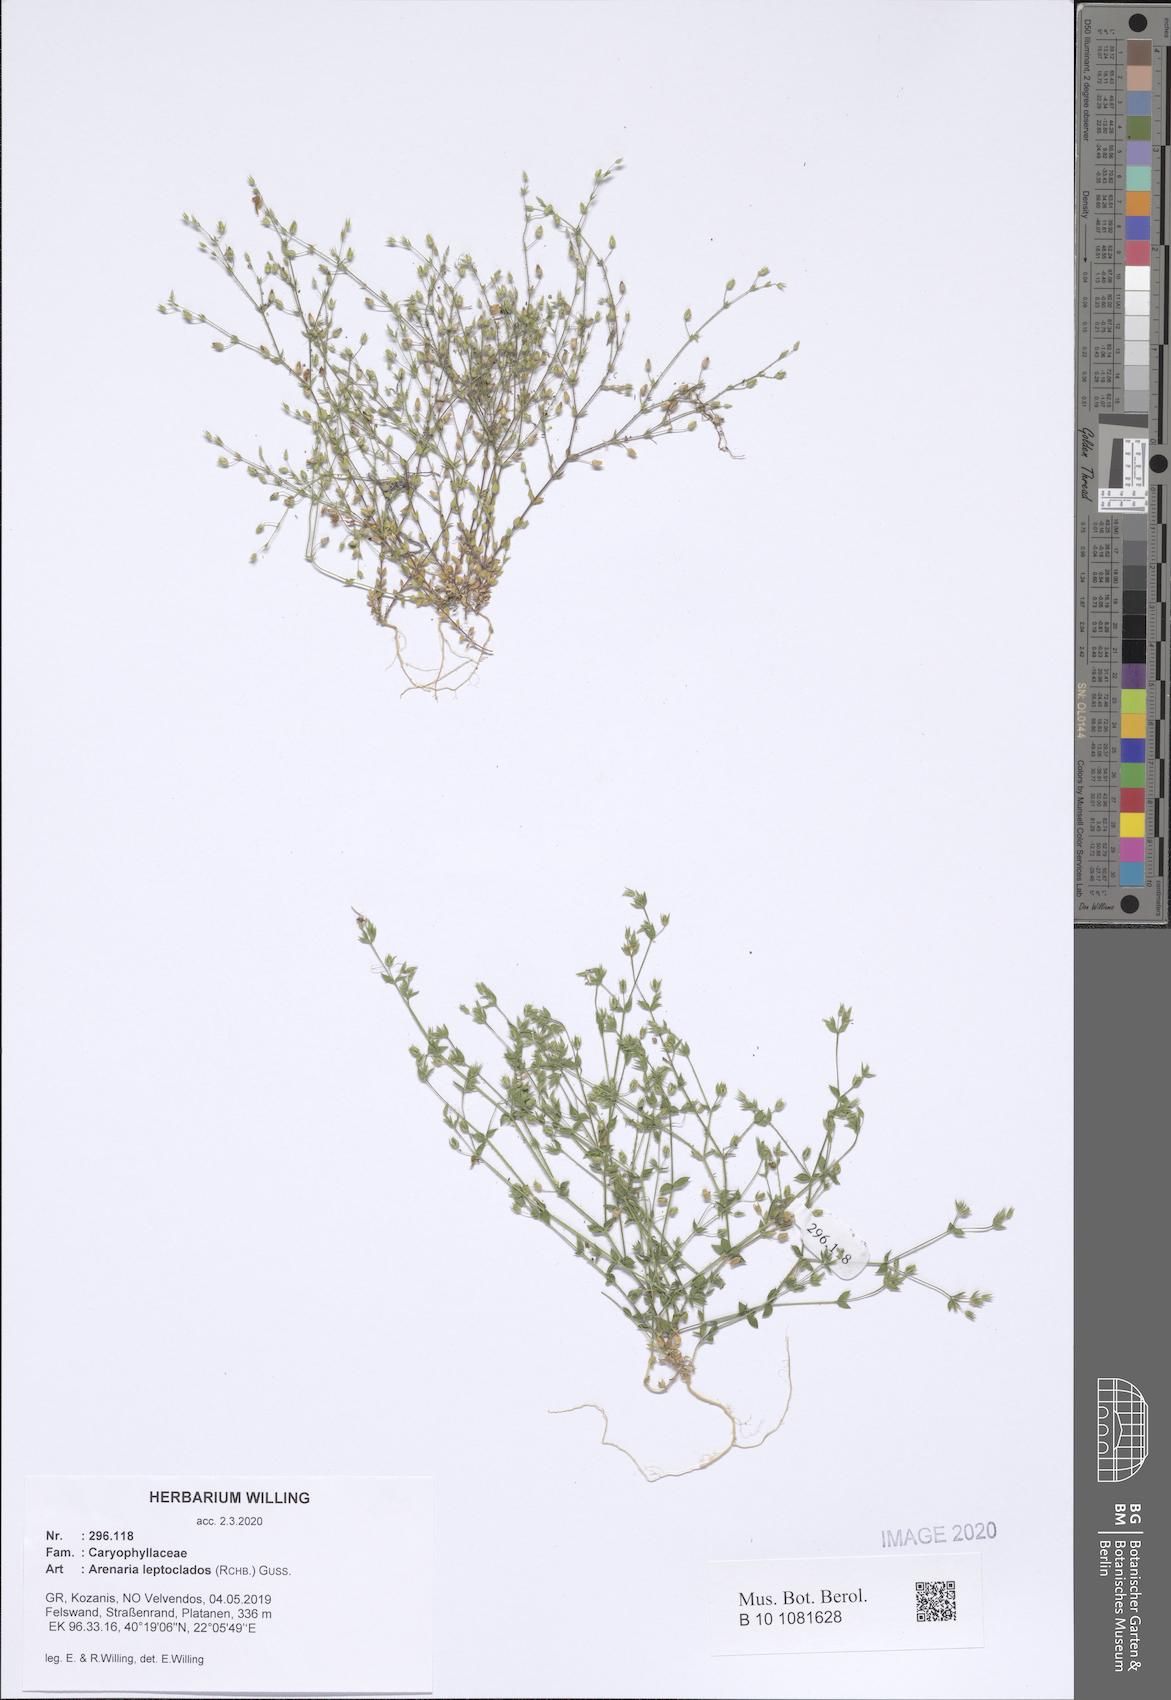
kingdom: Plantae
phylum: Tracheophyta
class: Magnoliopsida
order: Caryophyllales
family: Caryophyllaceae
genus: Arenaria
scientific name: Arenaria leptoclados
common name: Thyme-leaved sandwort
